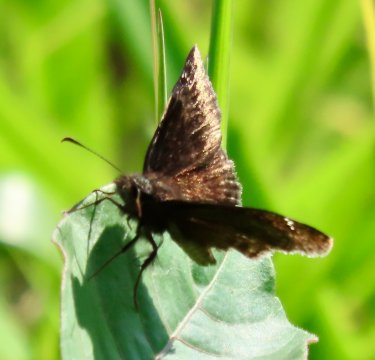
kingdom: Animalia
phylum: Arthropoda
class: Insecta
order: Lepidoptera
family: Hesperiidae
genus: Gesta
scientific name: Gesta
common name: Wild Indigo Duskywing
